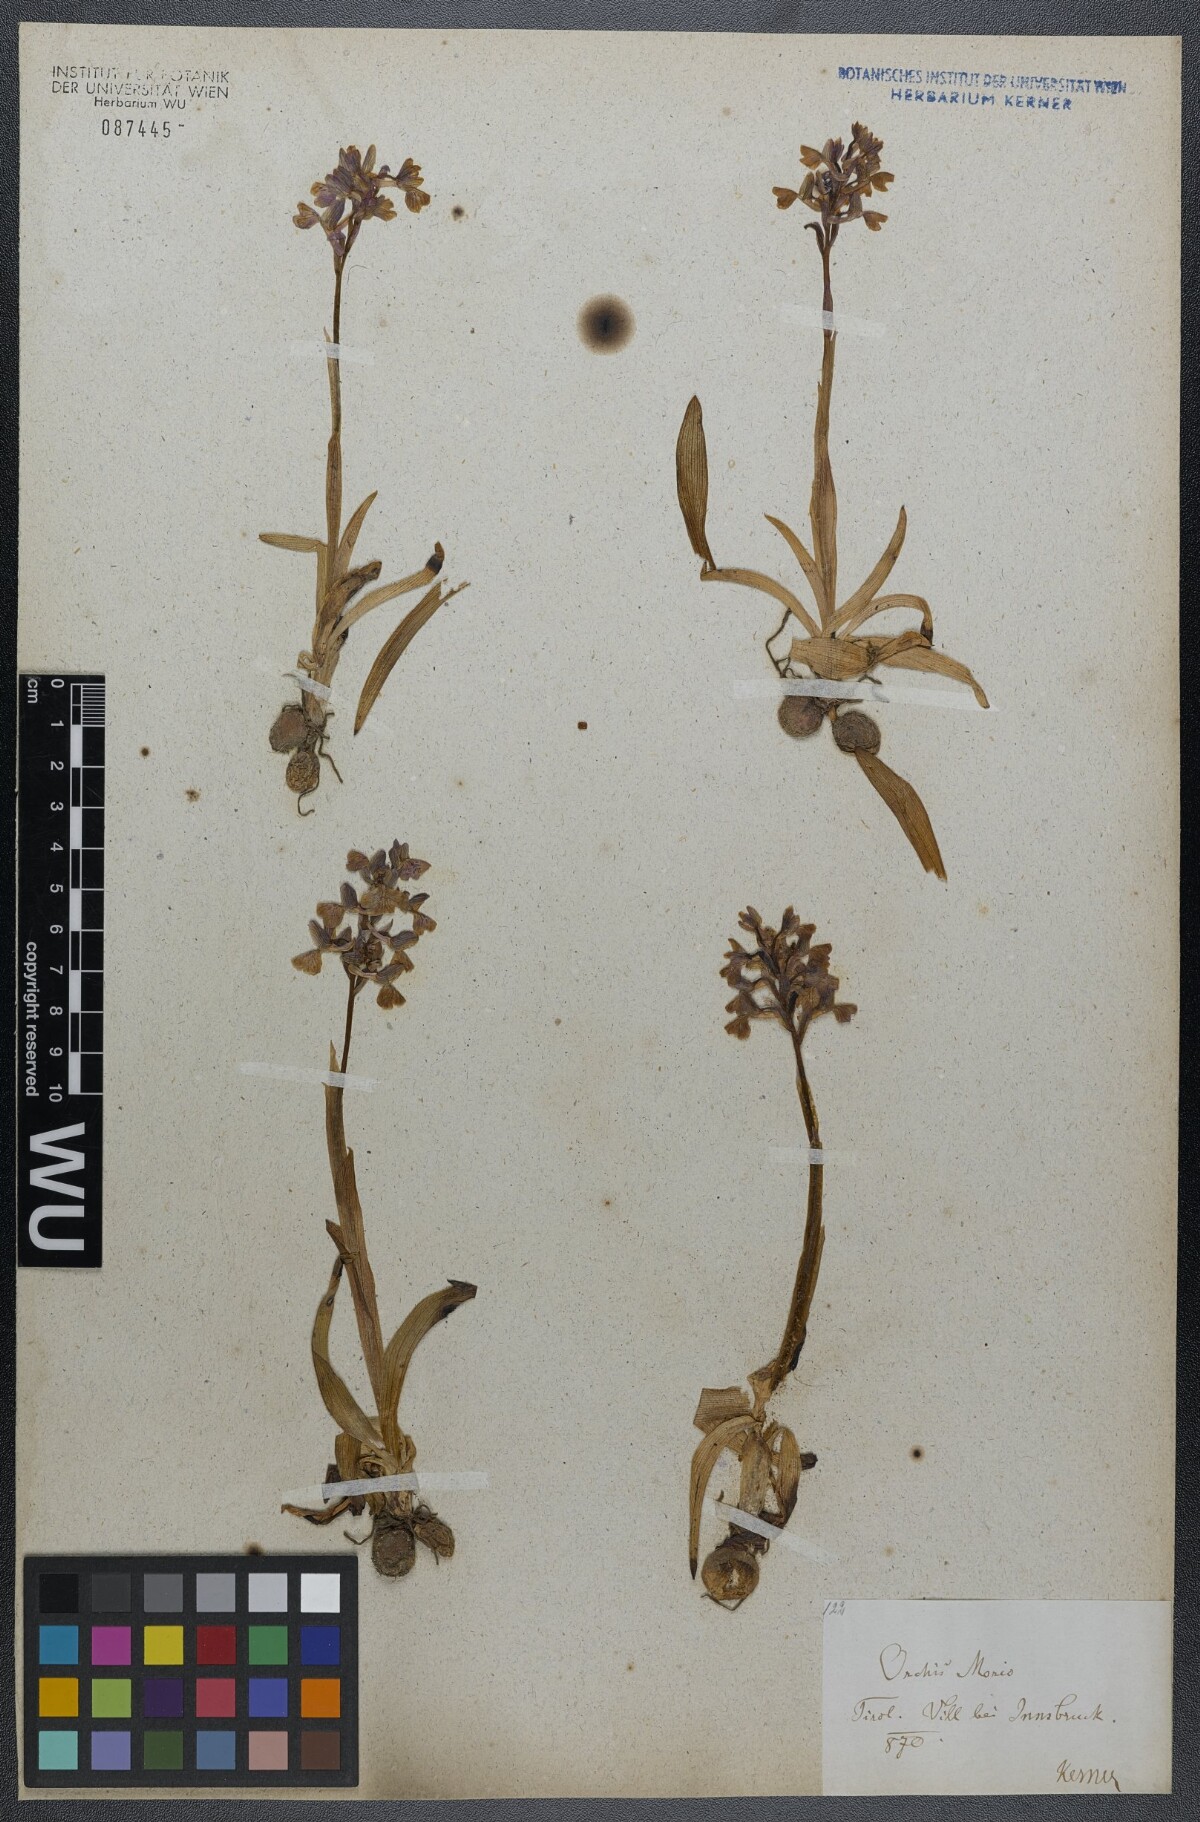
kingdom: Plantae
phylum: Tracheophyta
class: Liliopsida
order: Asparagales
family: Orchidaceae
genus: Anacamptis
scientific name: Anacamptis morio
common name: Green-winged orchid
